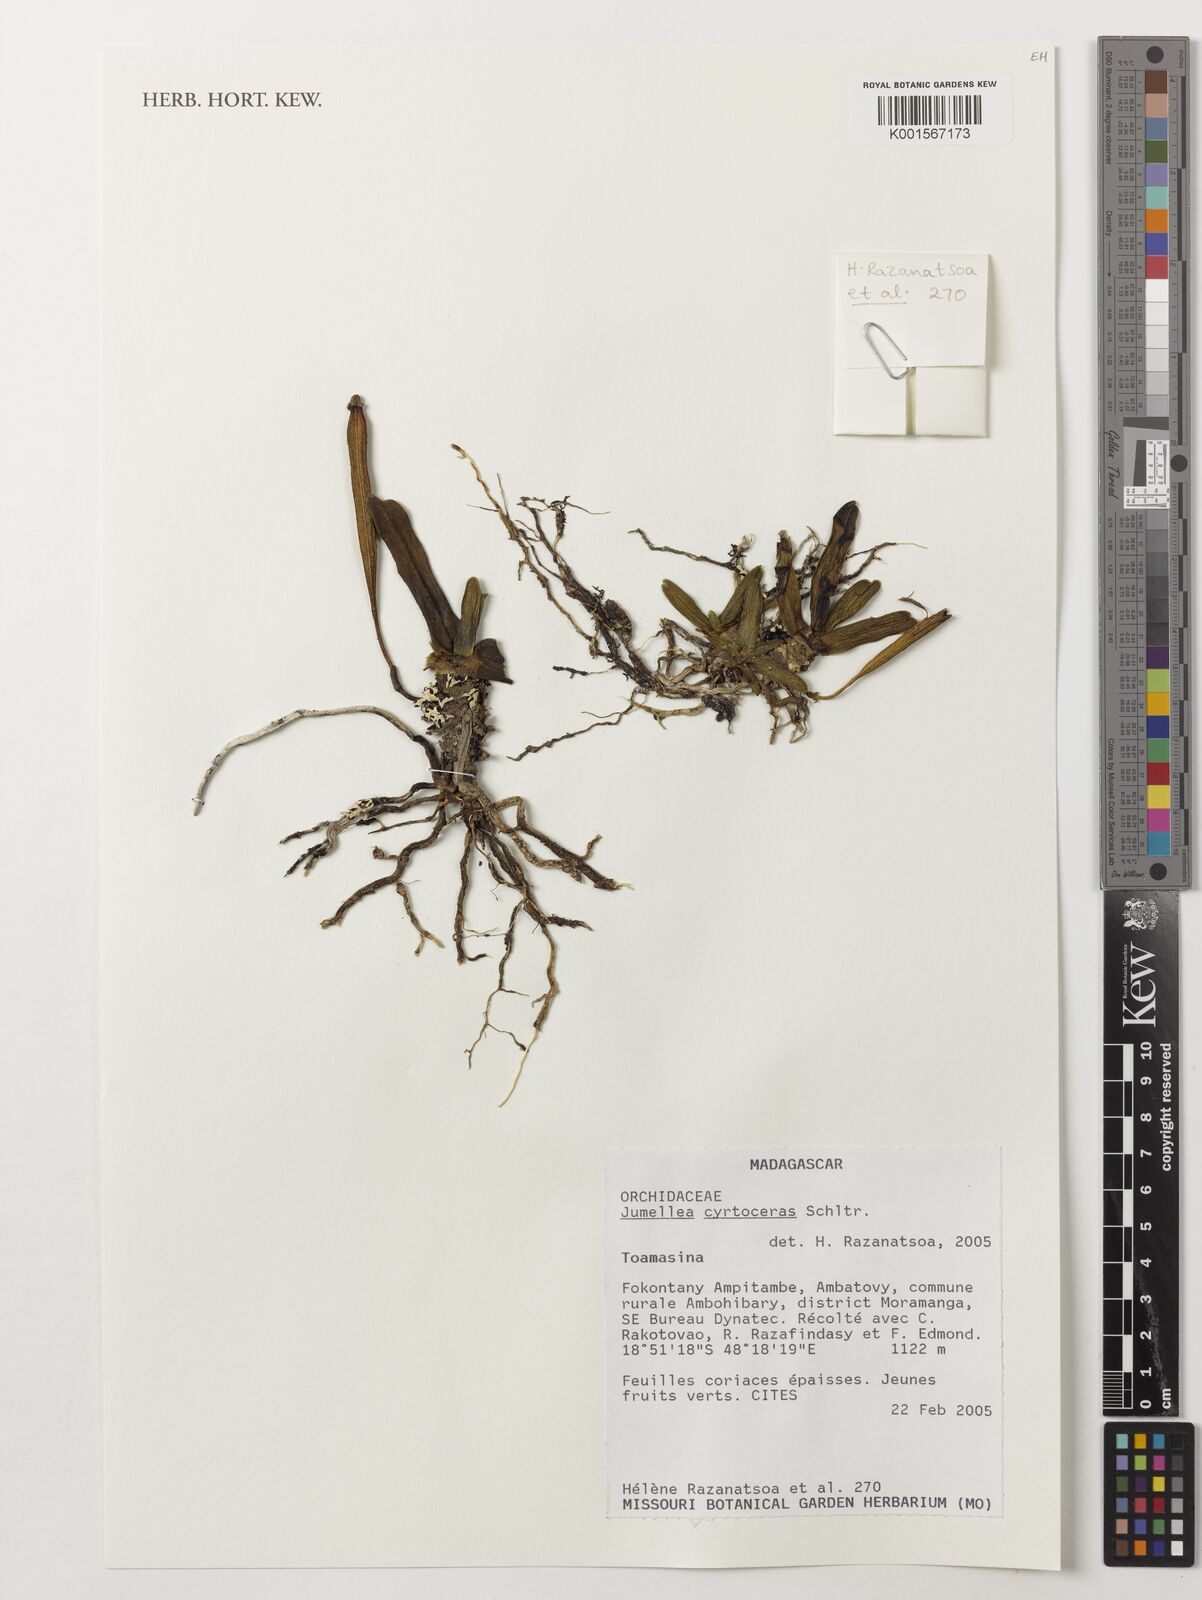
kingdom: Plantae
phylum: Tracheophyta
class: Liliopsida
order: Asparagales
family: Orchidaceae
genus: Jumellea
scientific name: Jumellea cyrtoceras
